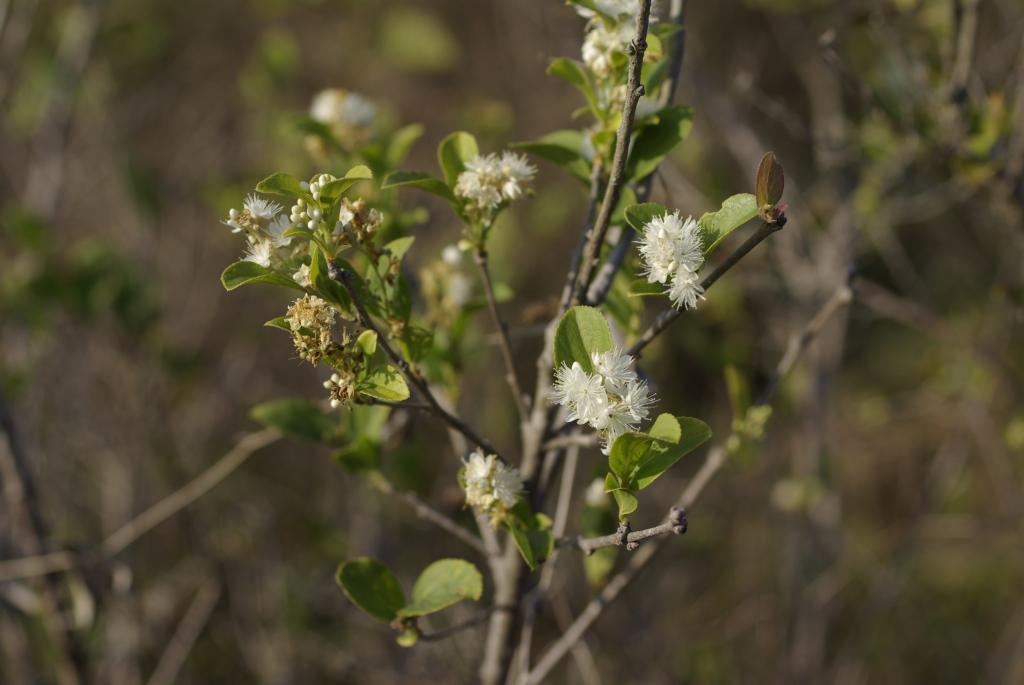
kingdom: Plantae
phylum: Tracheophyta
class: Magnoliopsida
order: Ericales
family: Symplocaceae
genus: Symplocos
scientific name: Symplocos paniculata
